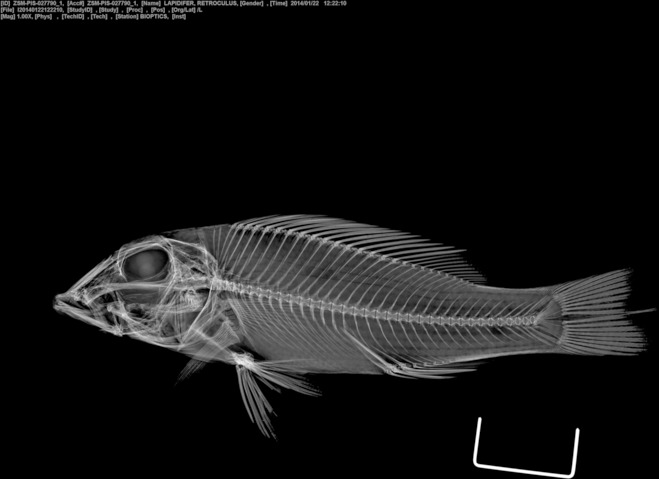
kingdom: Animalia
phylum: Chordata
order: Perciformes
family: Cichlidae
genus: Retroculus
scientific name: Retroculus lapidifer
